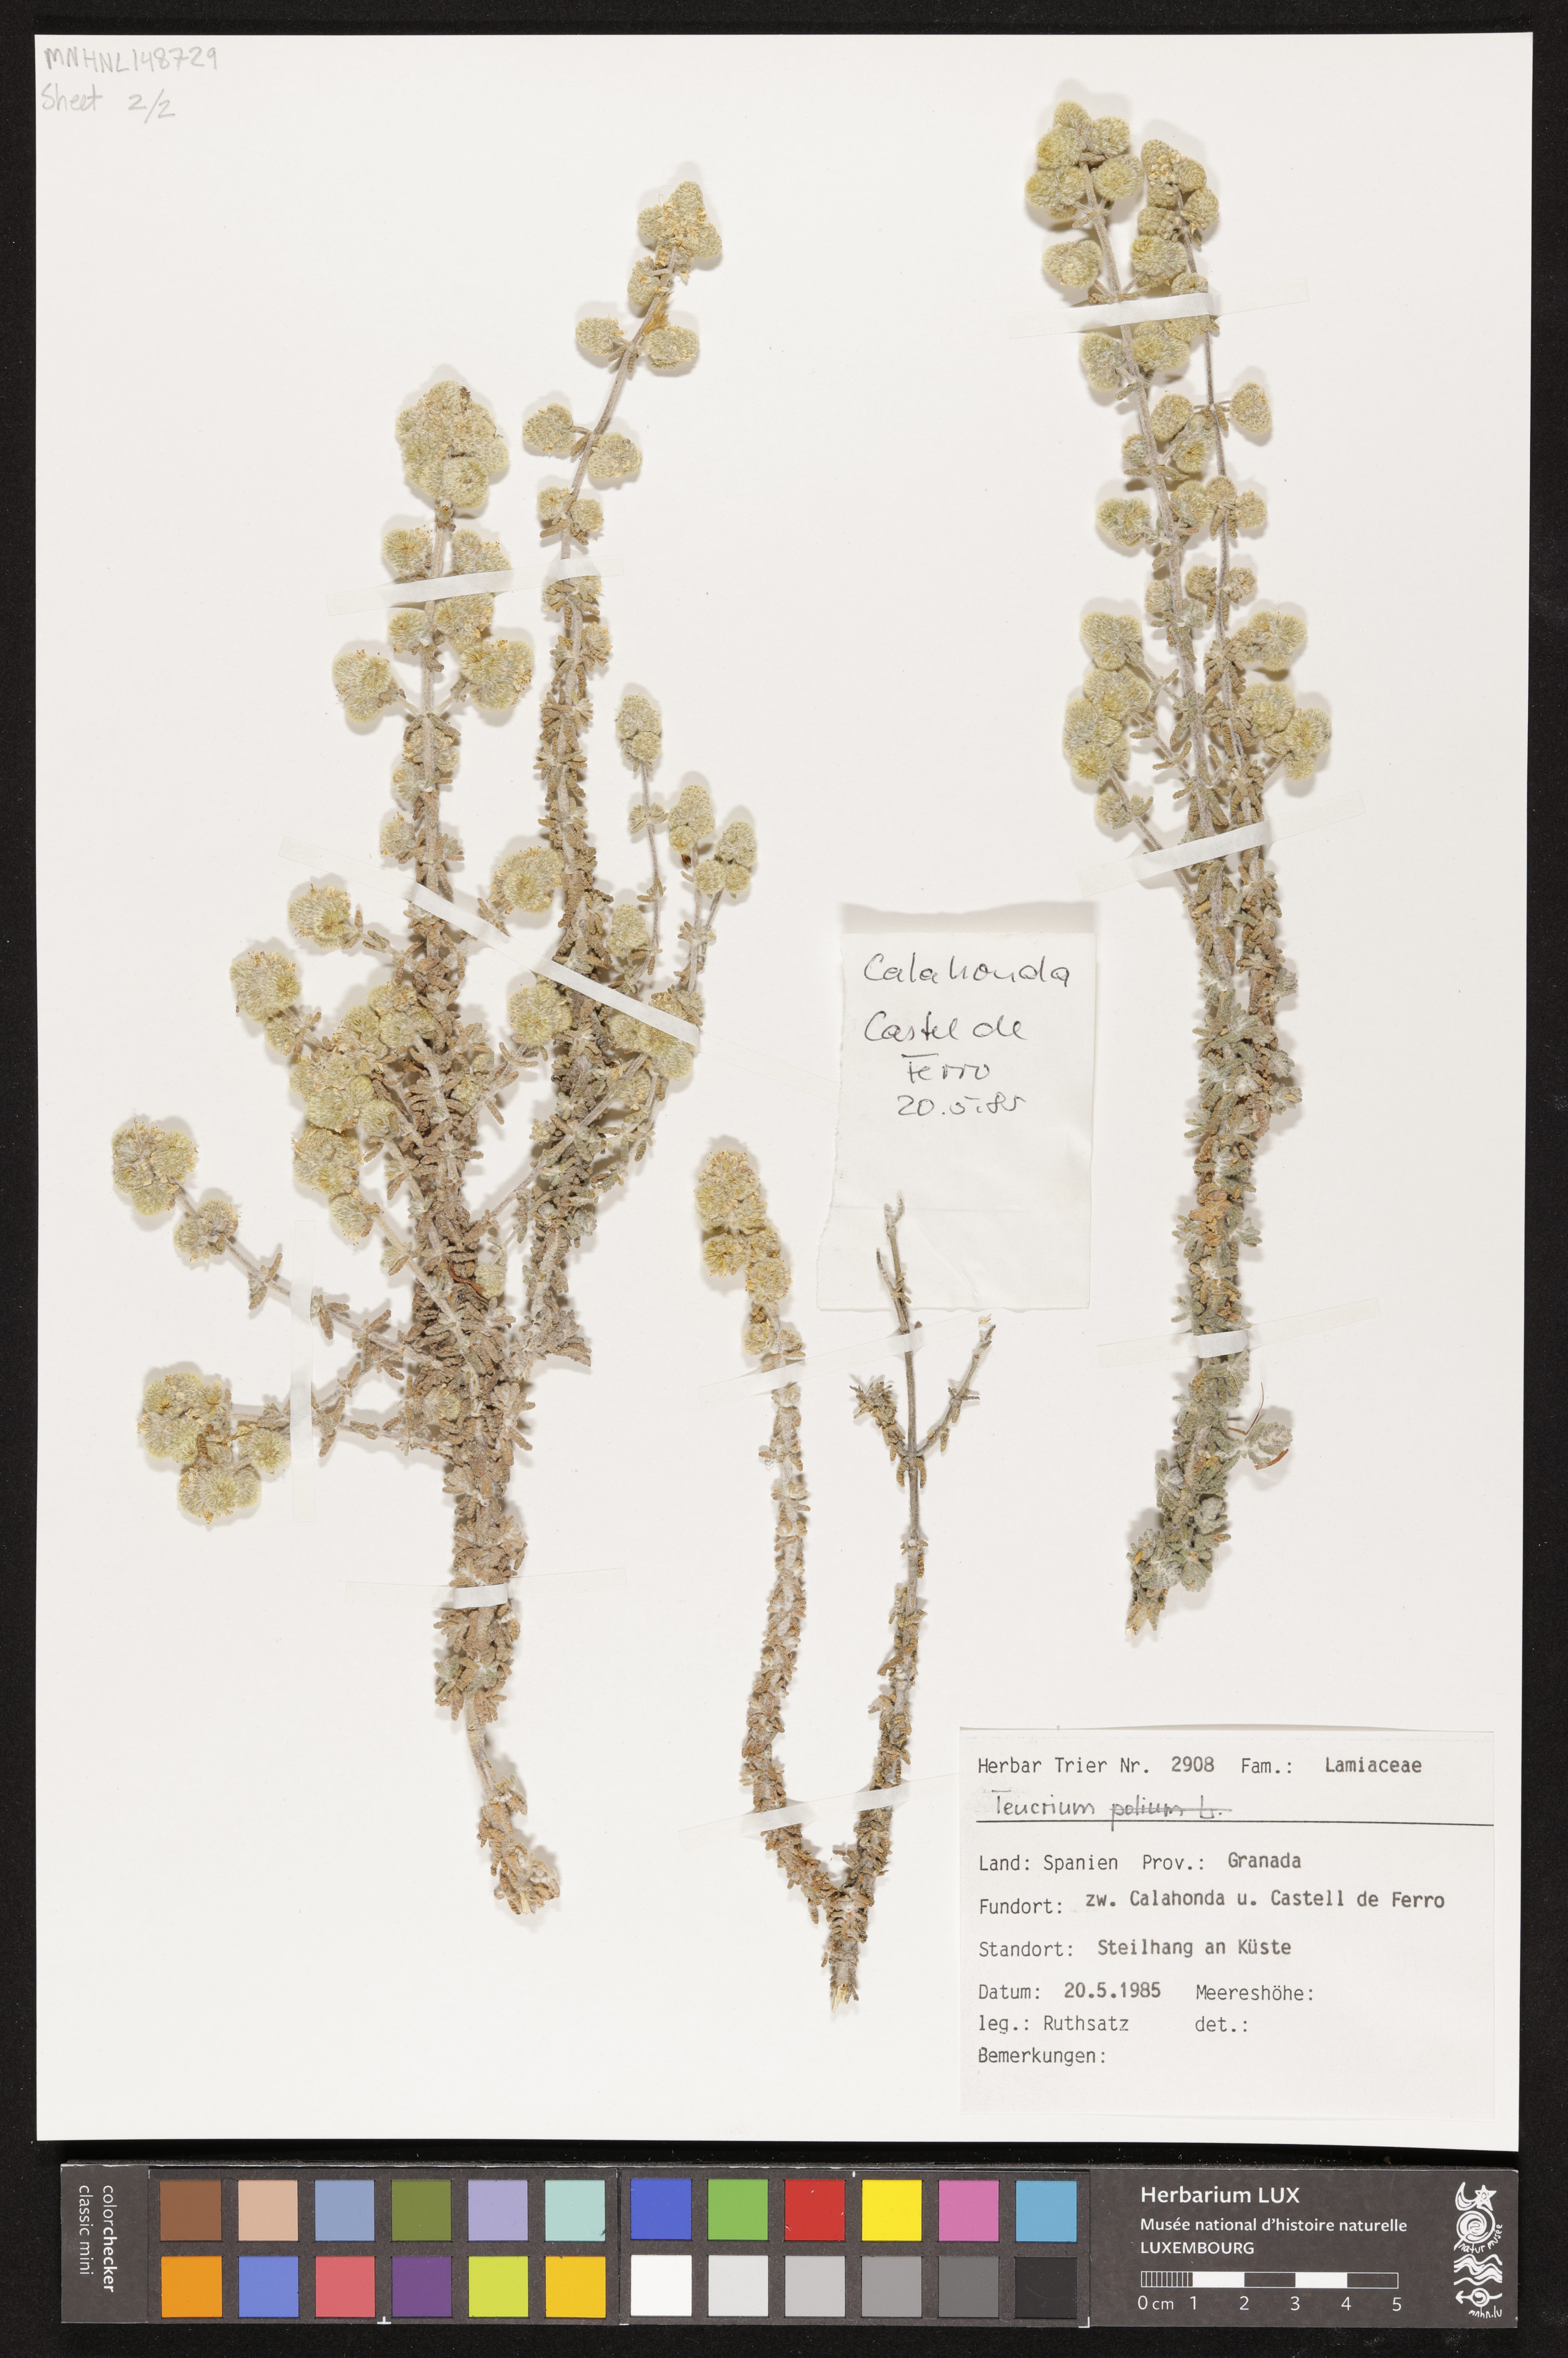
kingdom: Plantae
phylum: Tracheophyta
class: Magnoliopsida
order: Lamiales
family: Lamiaceae
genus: Teucrium
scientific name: Teucrium
